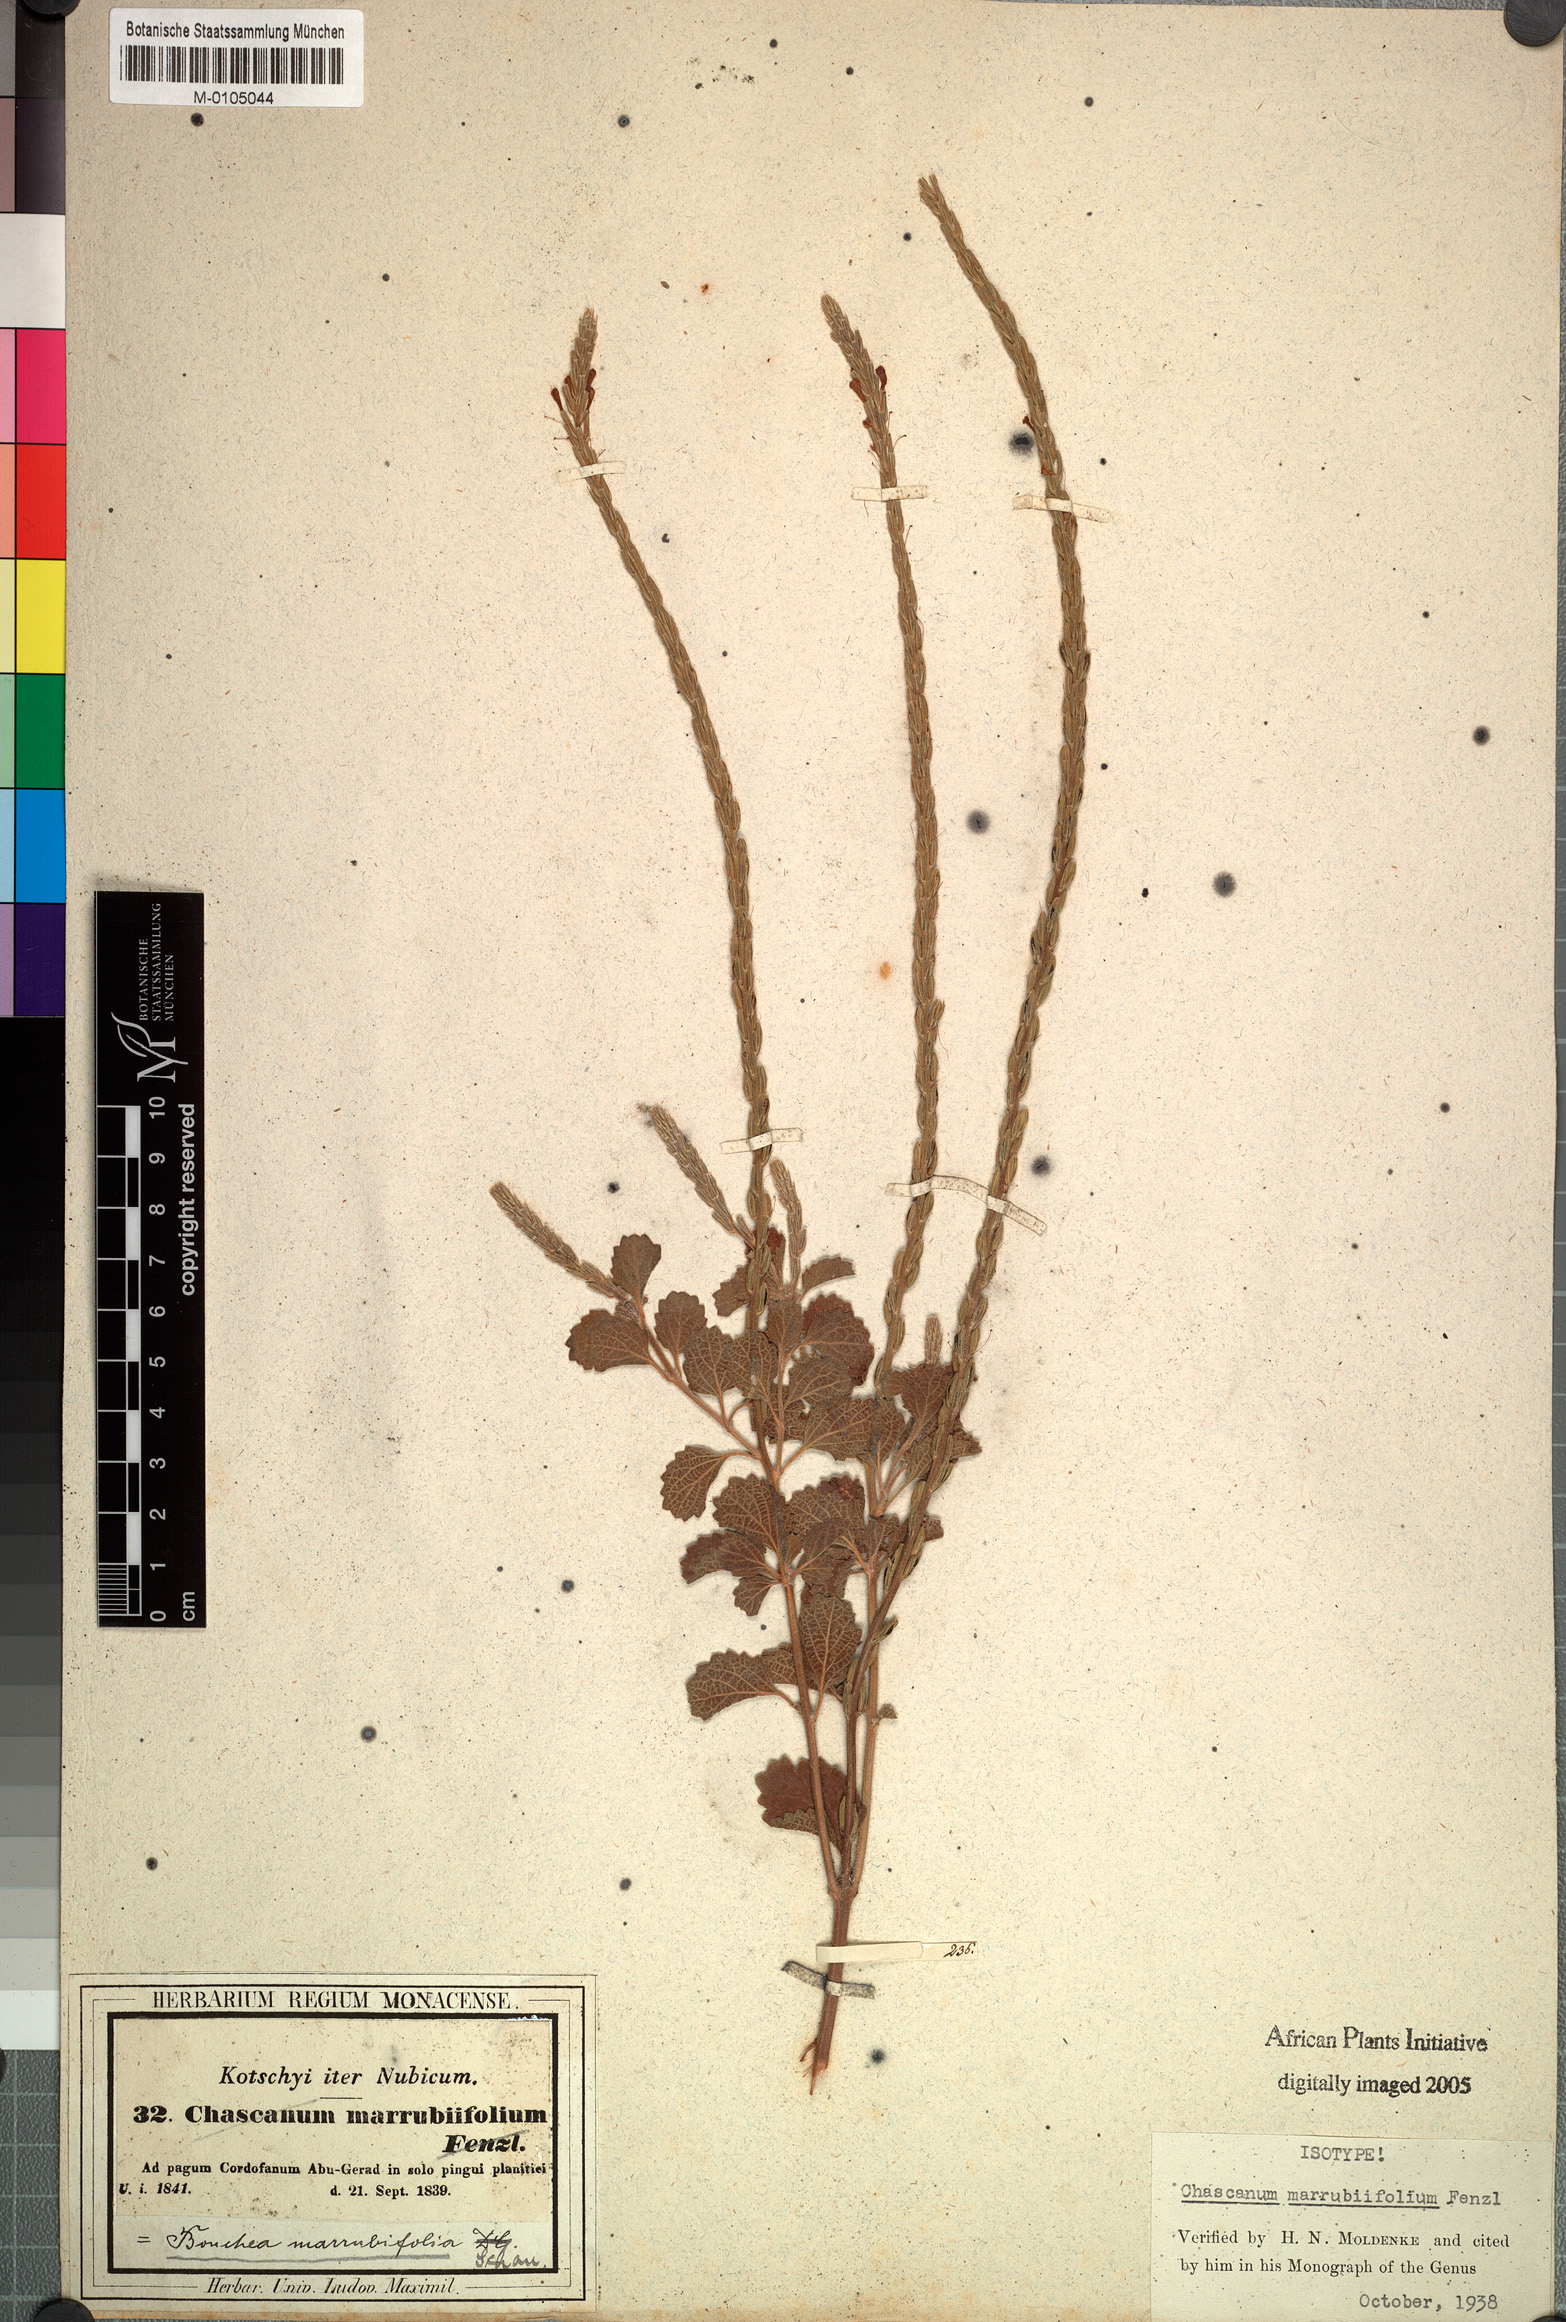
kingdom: Plantae
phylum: Tracheophyta
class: Magnoliopsida
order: Lamiales
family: Verbenaceae
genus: Chascanum
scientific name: Chascanum marrubiifolium
